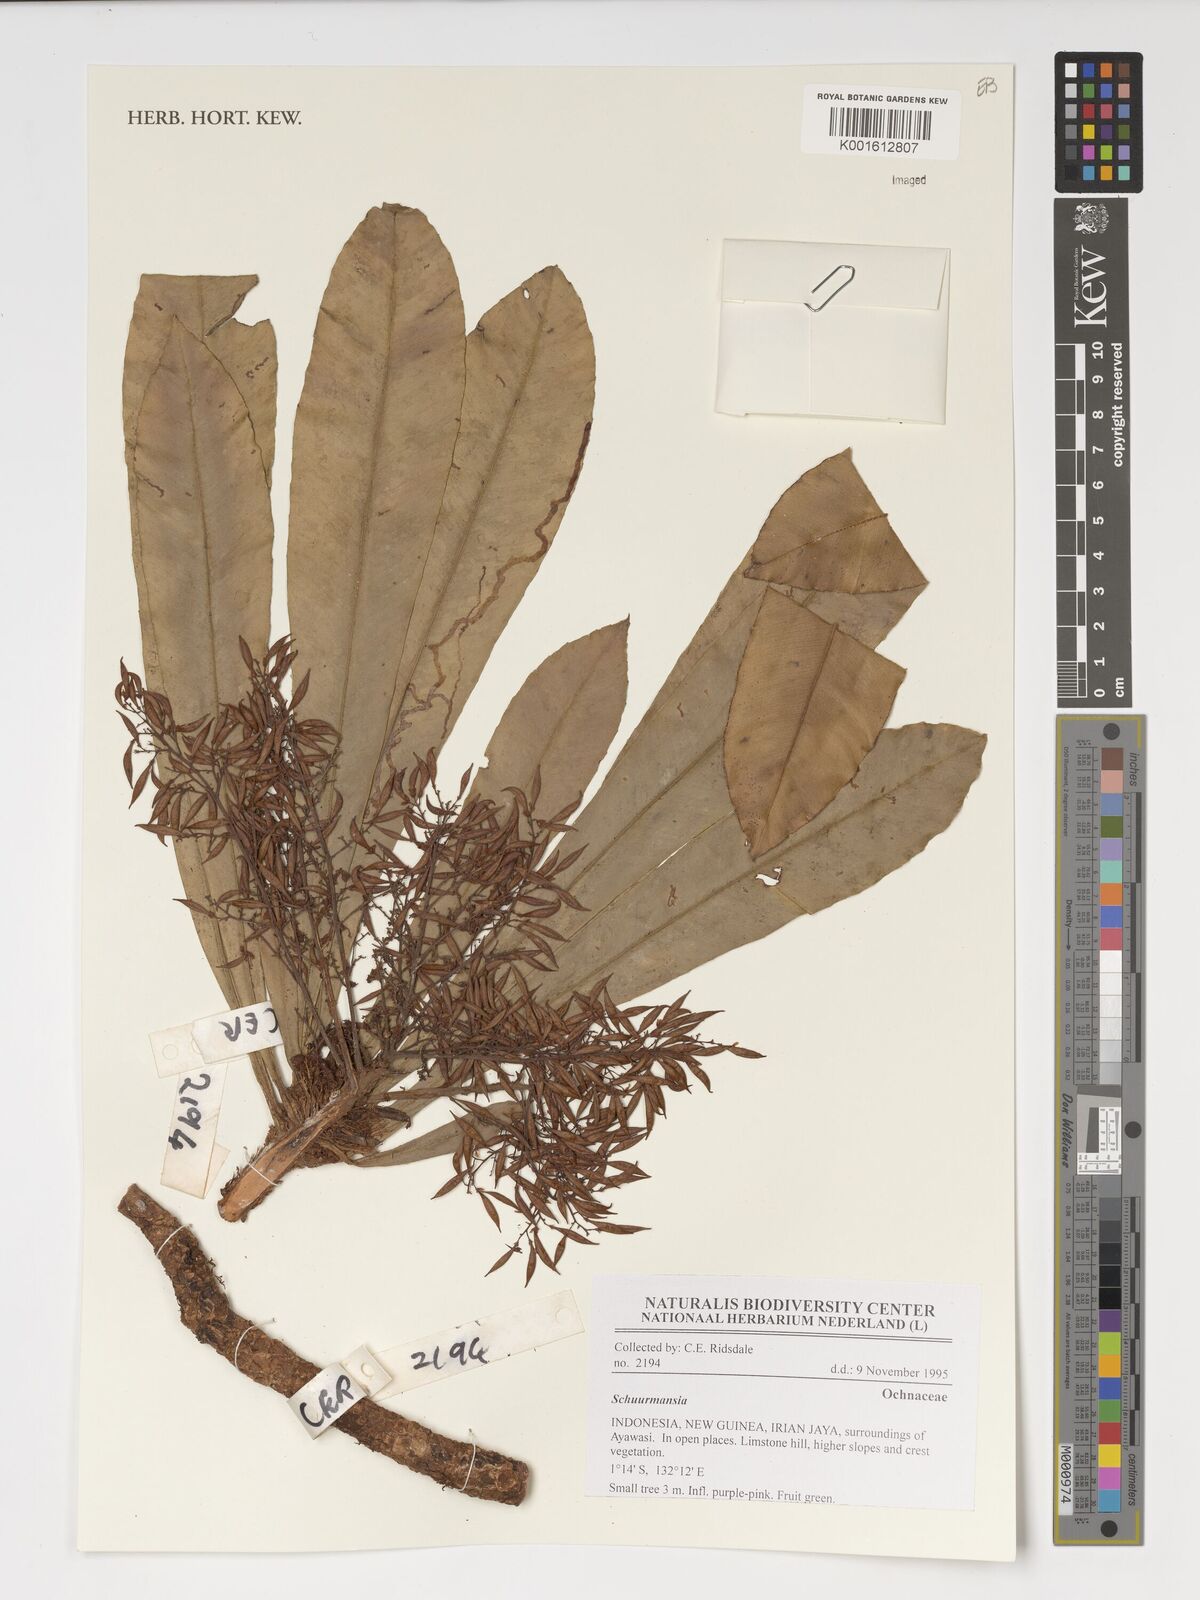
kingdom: Plantae
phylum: Tracheophyta
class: Magnoliopsida
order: Malpighiales
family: Ochnaceae
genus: Schuurmansia
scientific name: Schuurmansia
